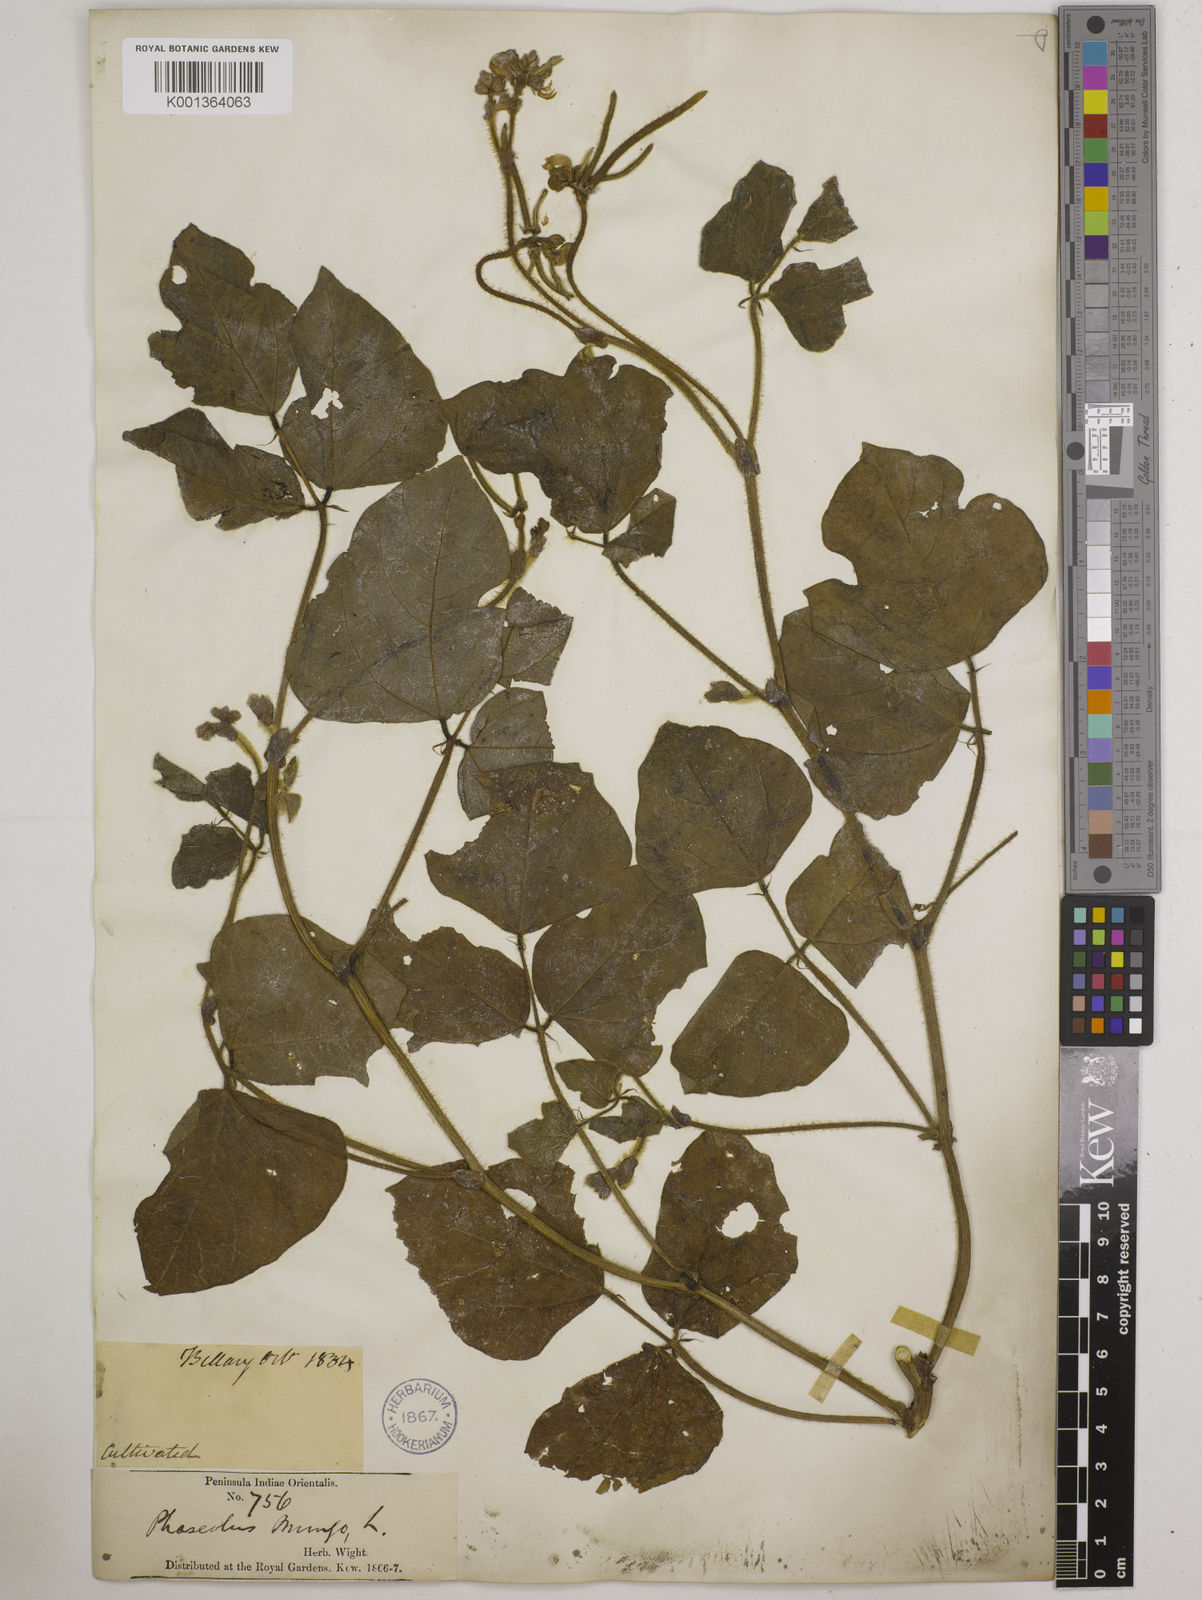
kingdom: Plantae
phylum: Tracheophyta
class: Magnoliopsida
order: Fabales
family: Fabaceae
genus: Vigna
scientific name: Vigna radiata
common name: Mung-bean
